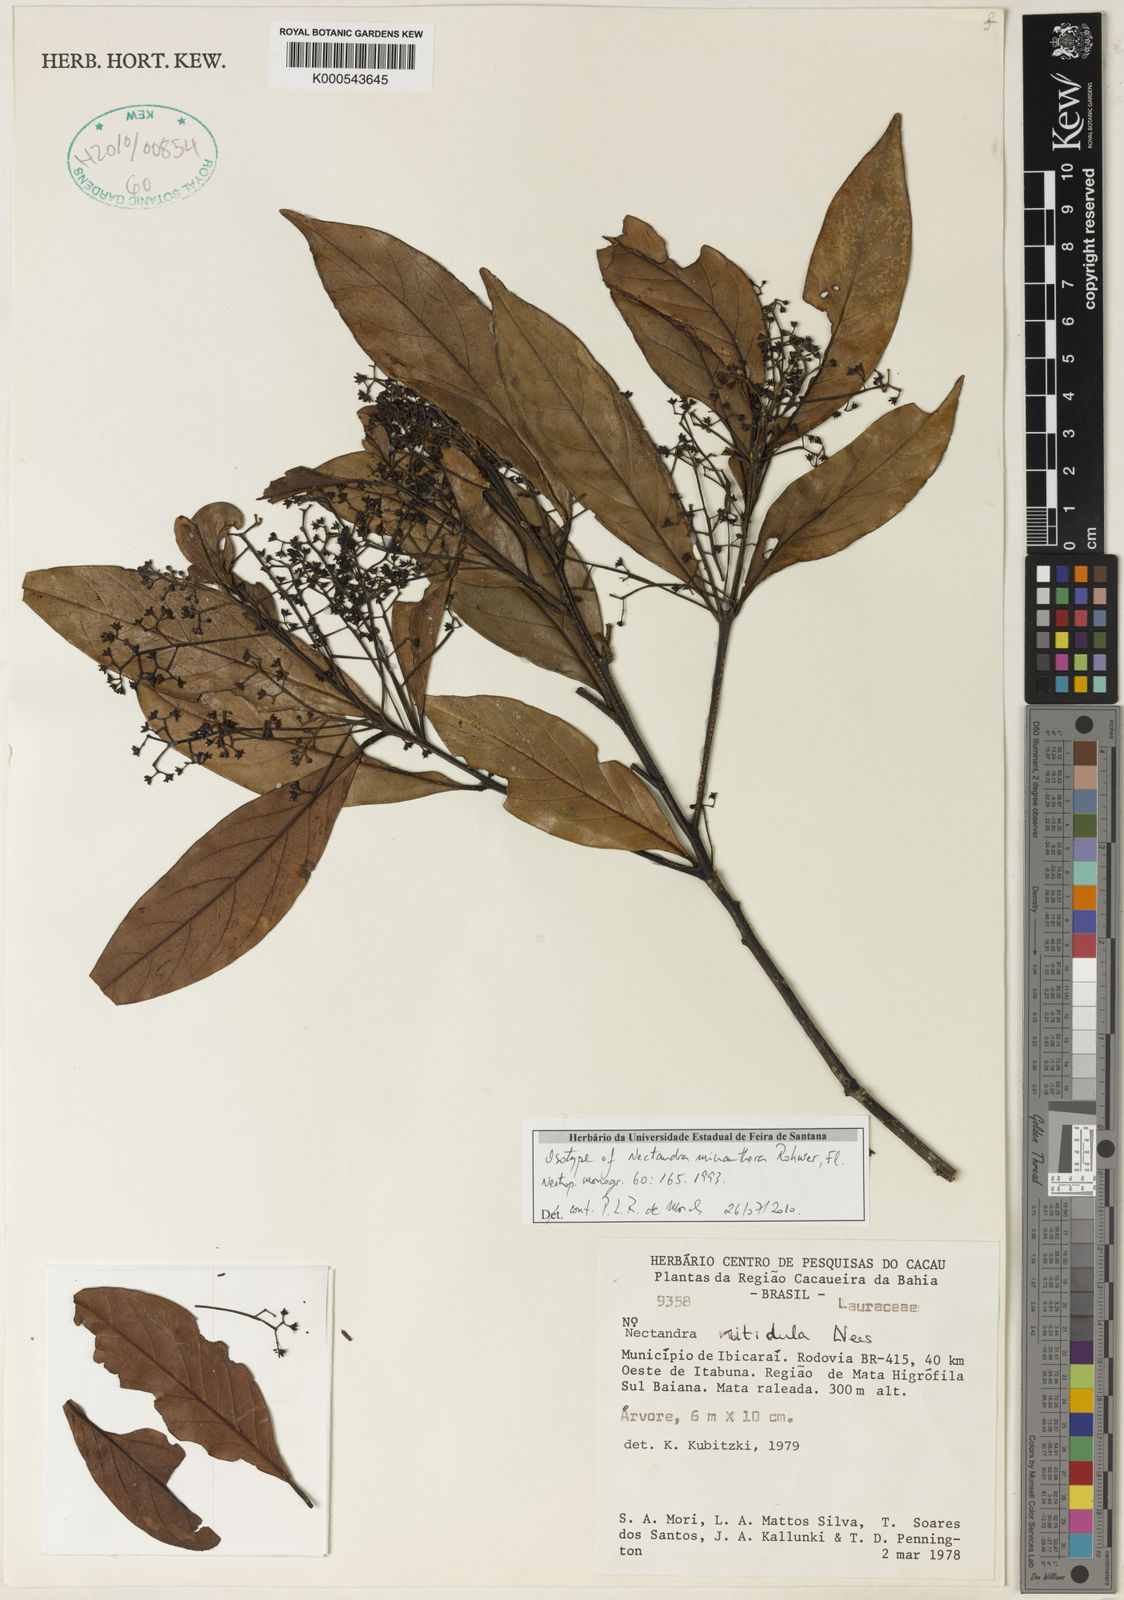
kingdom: Plantae
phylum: Tracheophyta
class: Magnoliopsida
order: Laurales
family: Lauraceae
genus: Nectandra
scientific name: Nectandra micranthera
